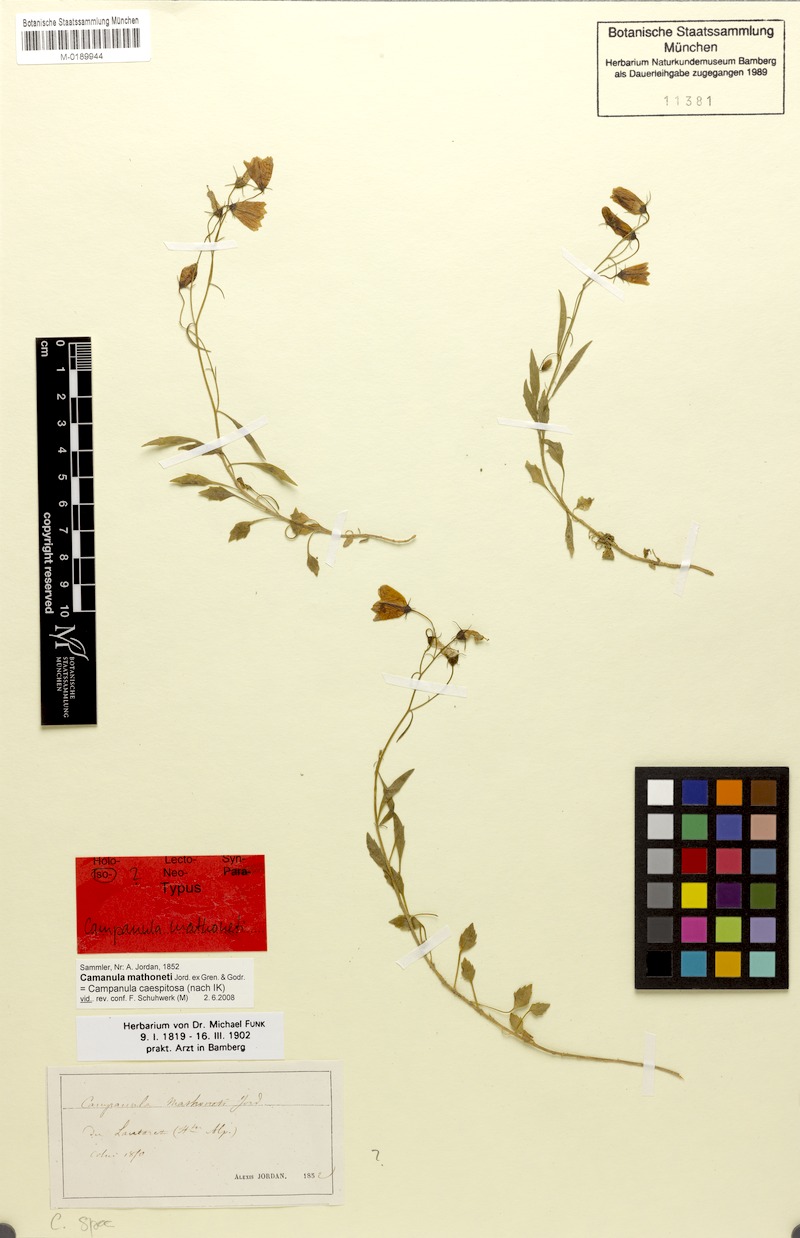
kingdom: Plantae
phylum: Tracheophyta
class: Magnoliopsida
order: Asterales
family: Campanulaceae
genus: Campanula
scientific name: Campanula cochleariifolia
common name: Fairies'-thimbles
